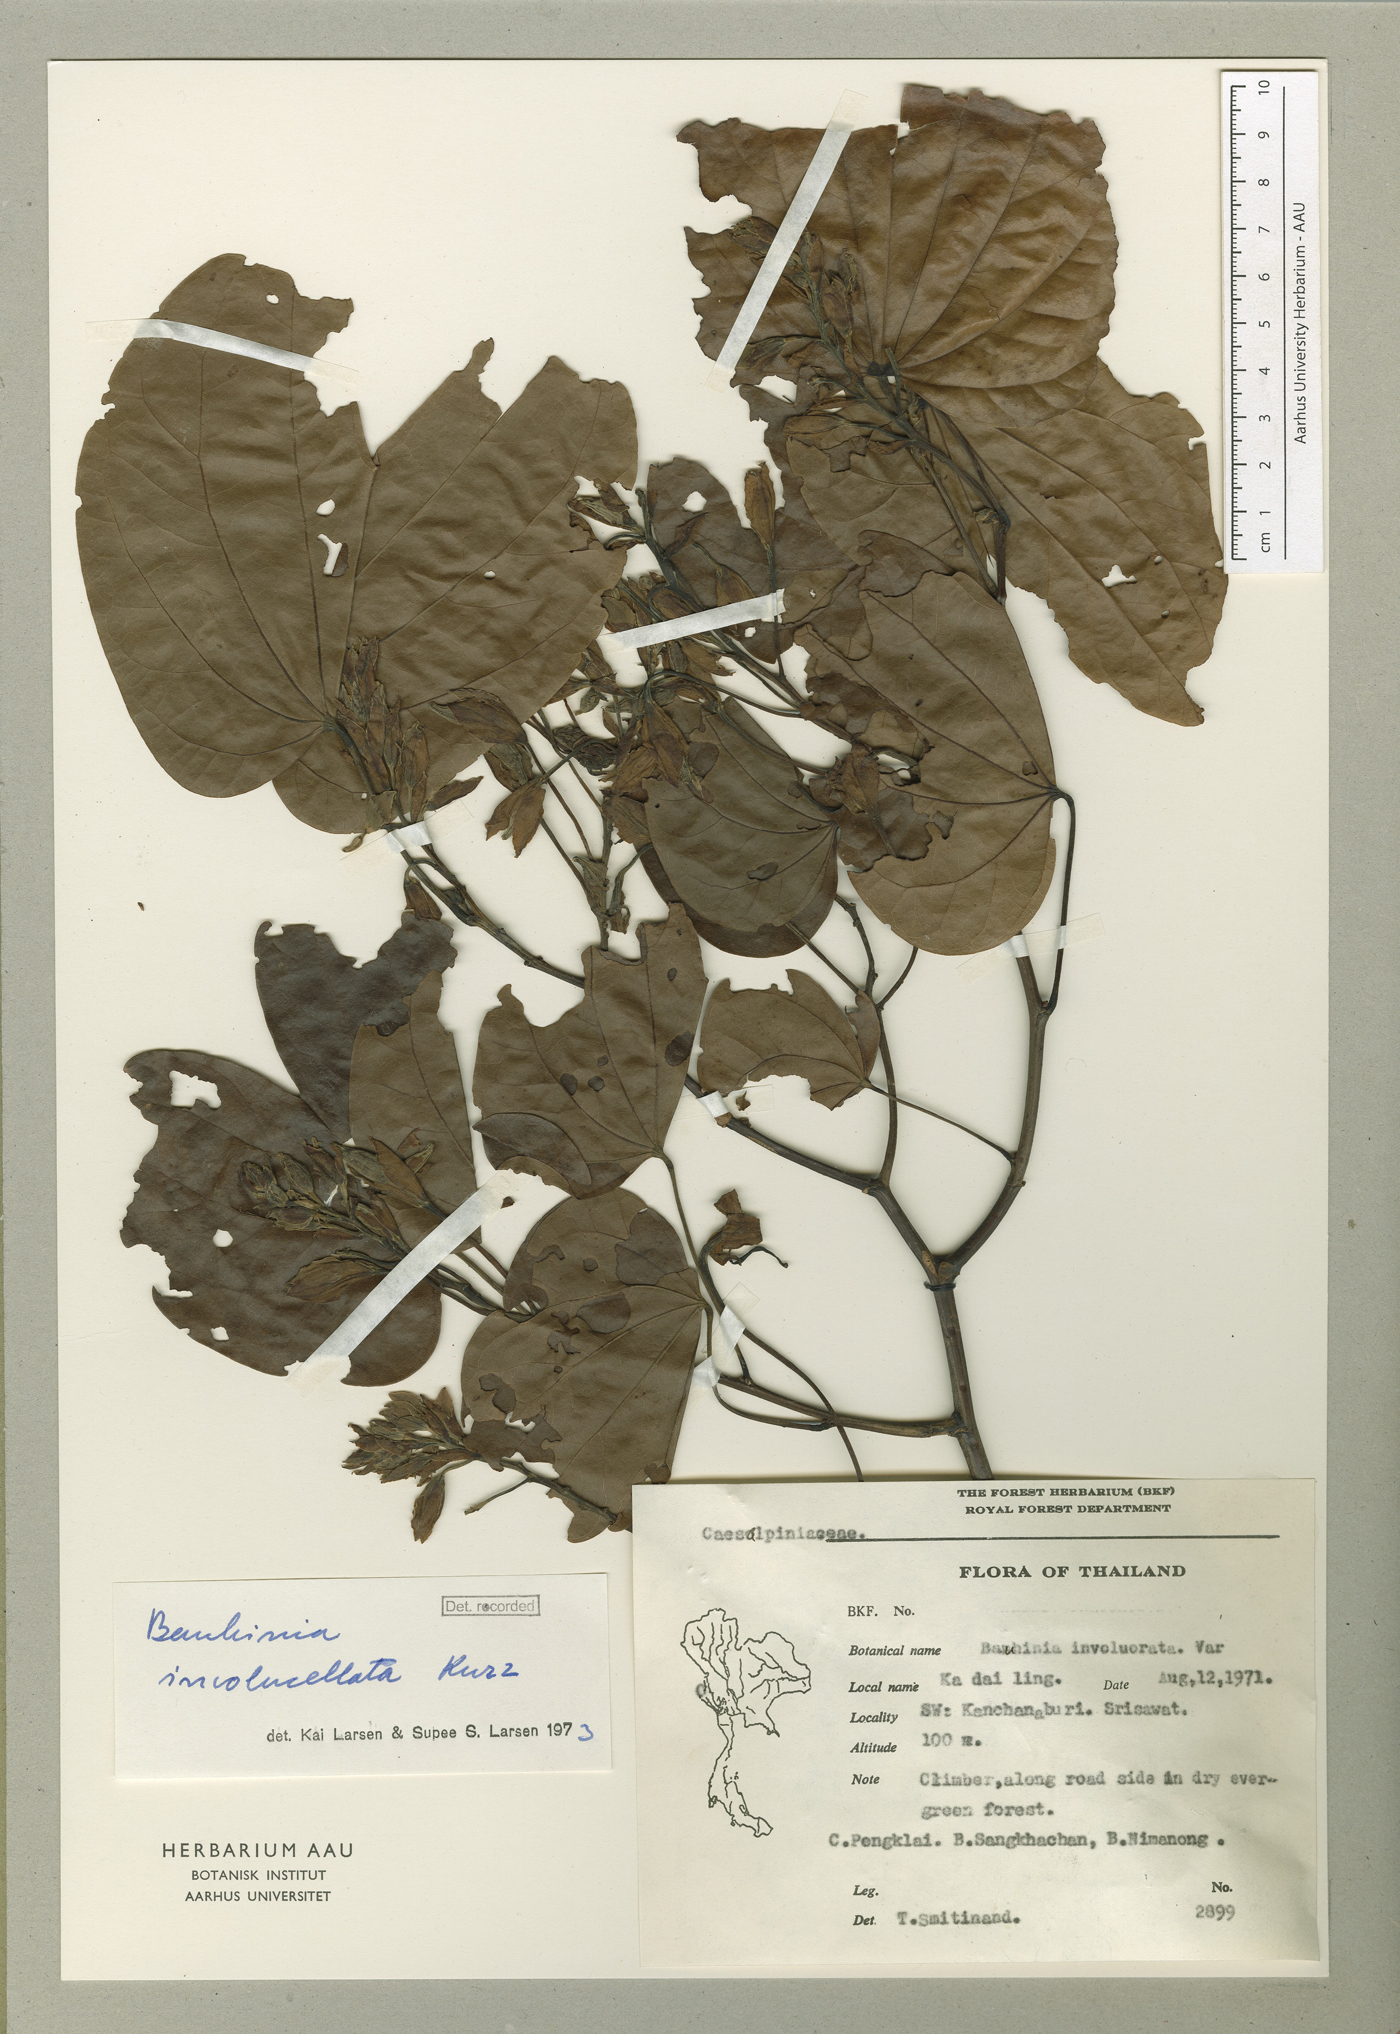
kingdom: Plantae
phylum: Tracheophyta
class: Magnoliopsida
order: Fabales
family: Fabaceae
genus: Phanera
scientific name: Phanera involucellata
